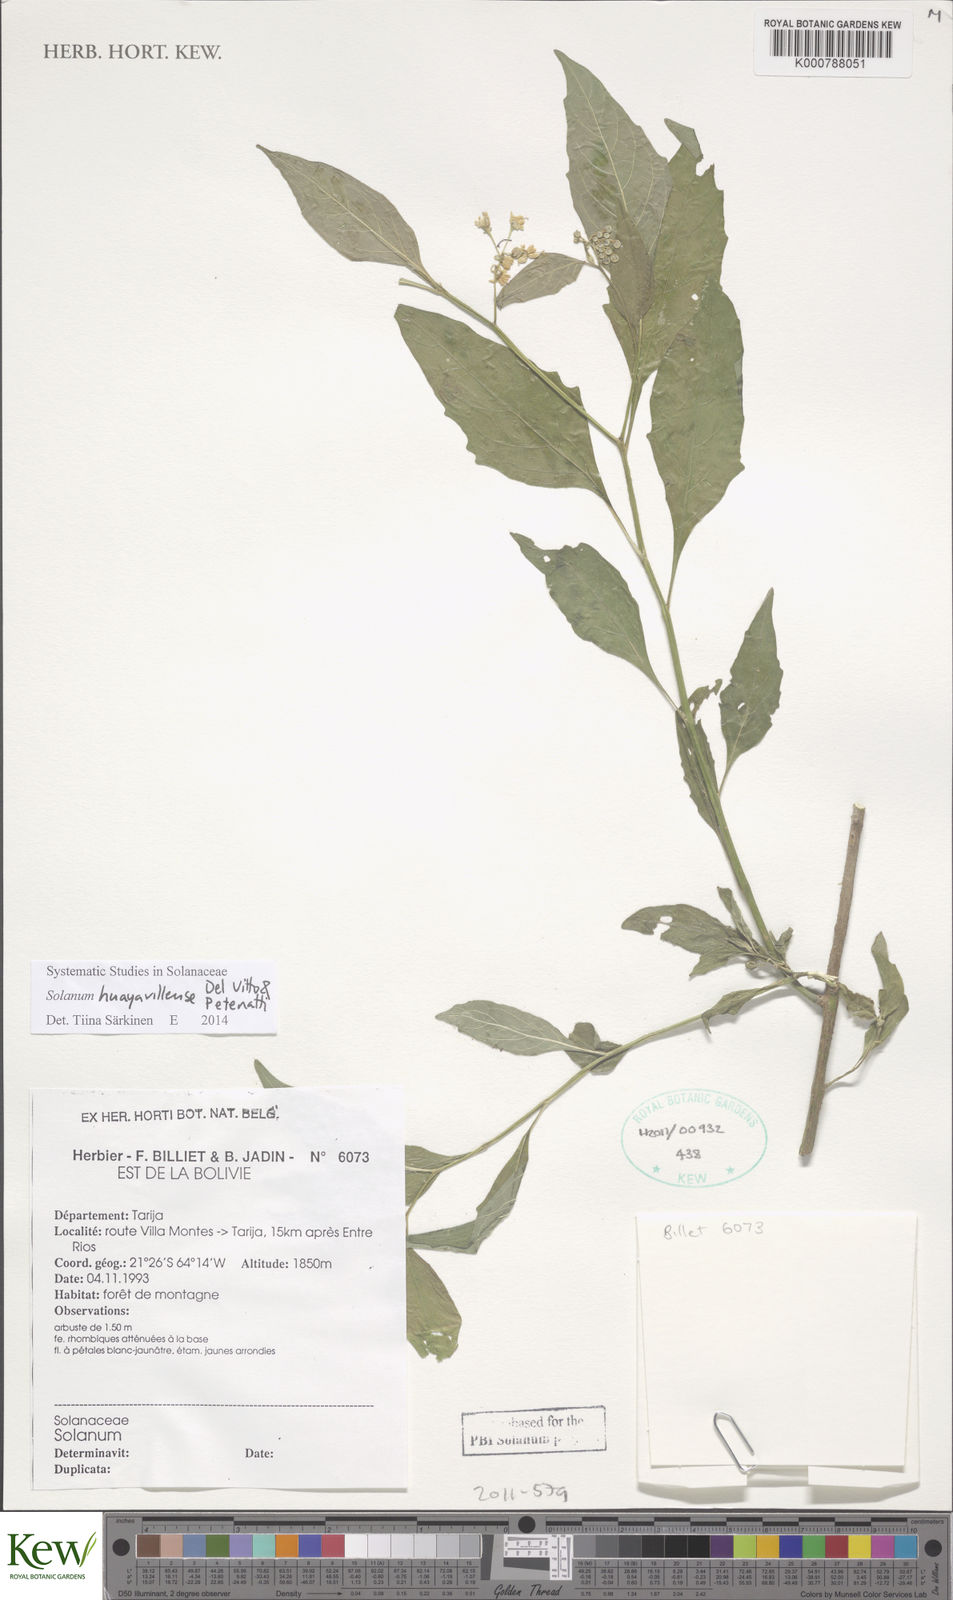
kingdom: Plantae
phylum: Tracheophyta
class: Magnoliopsida
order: Solanales
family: Solanaceae
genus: Solanum
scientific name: Solanum huayavillense
